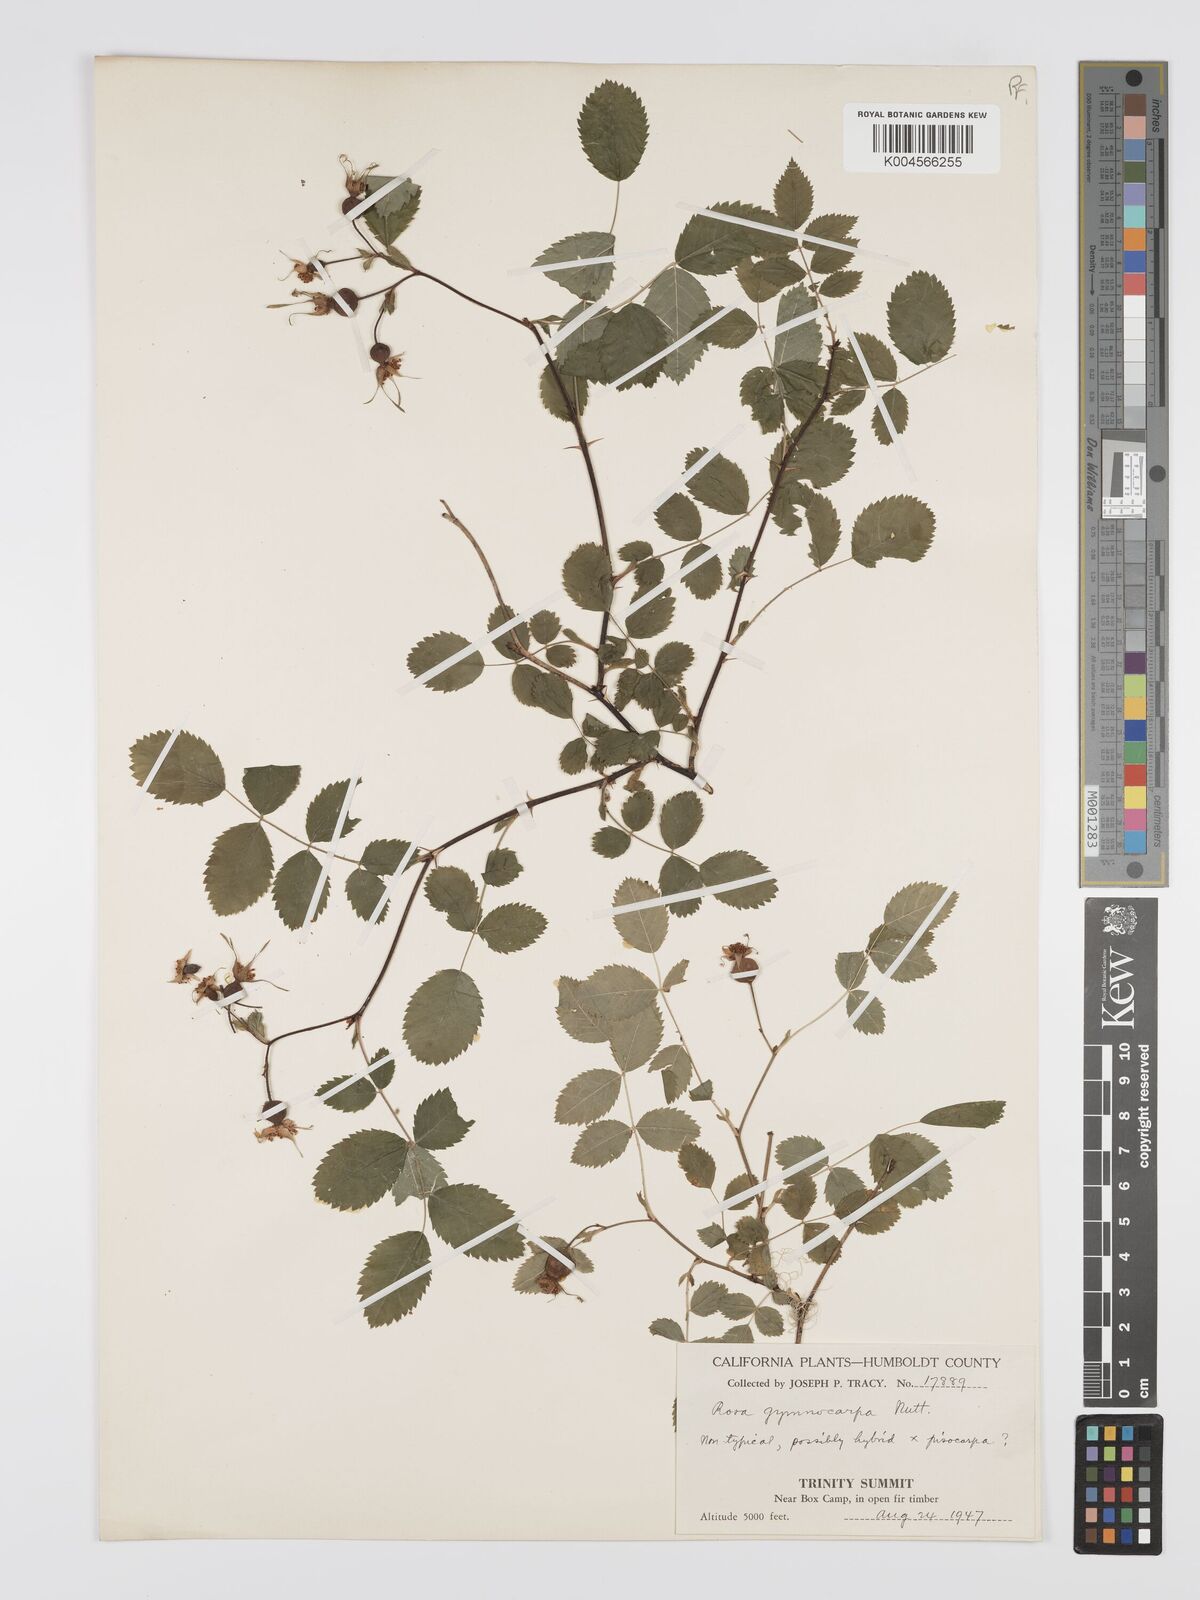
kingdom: Plantae
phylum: Tracheophyta
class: Magnoliopsida
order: Rosales
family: Rosaceae
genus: Rosa
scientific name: Rosa gymnocarpa
